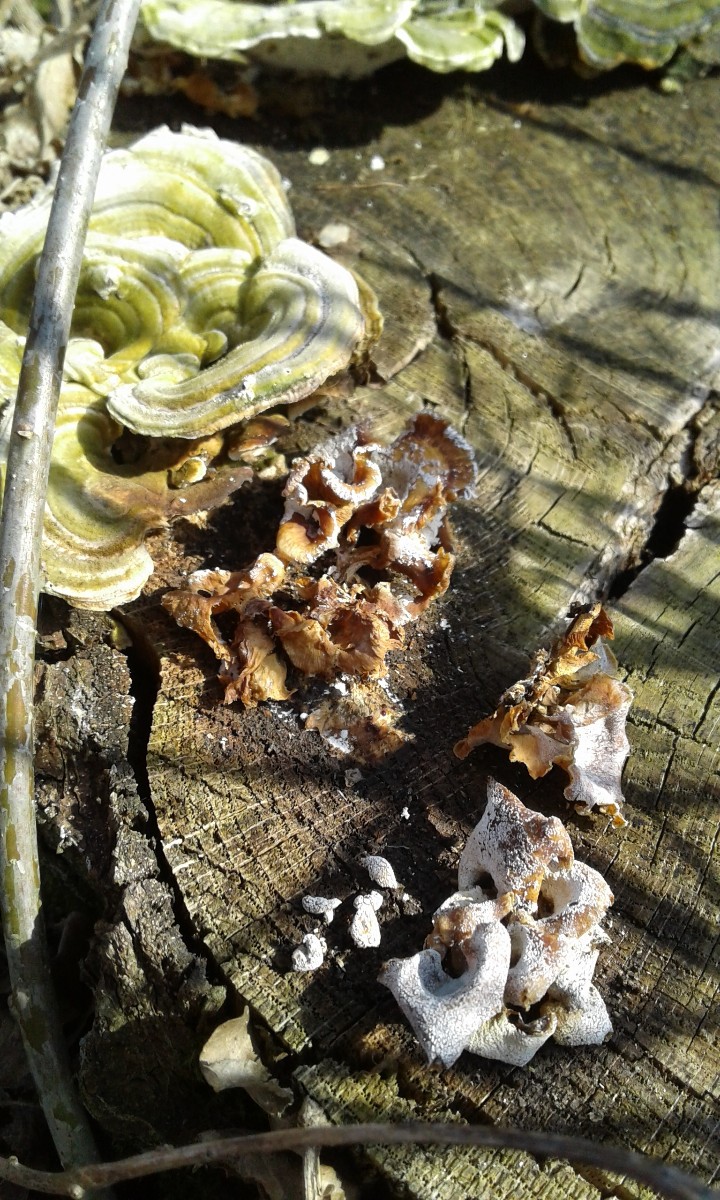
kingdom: Fungi
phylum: Basidiomycota
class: Agaricomycetes
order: Agaricales
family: Mycenaceae
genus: Panellus
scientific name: Panellus stipticus
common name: kliddet epaulethat
